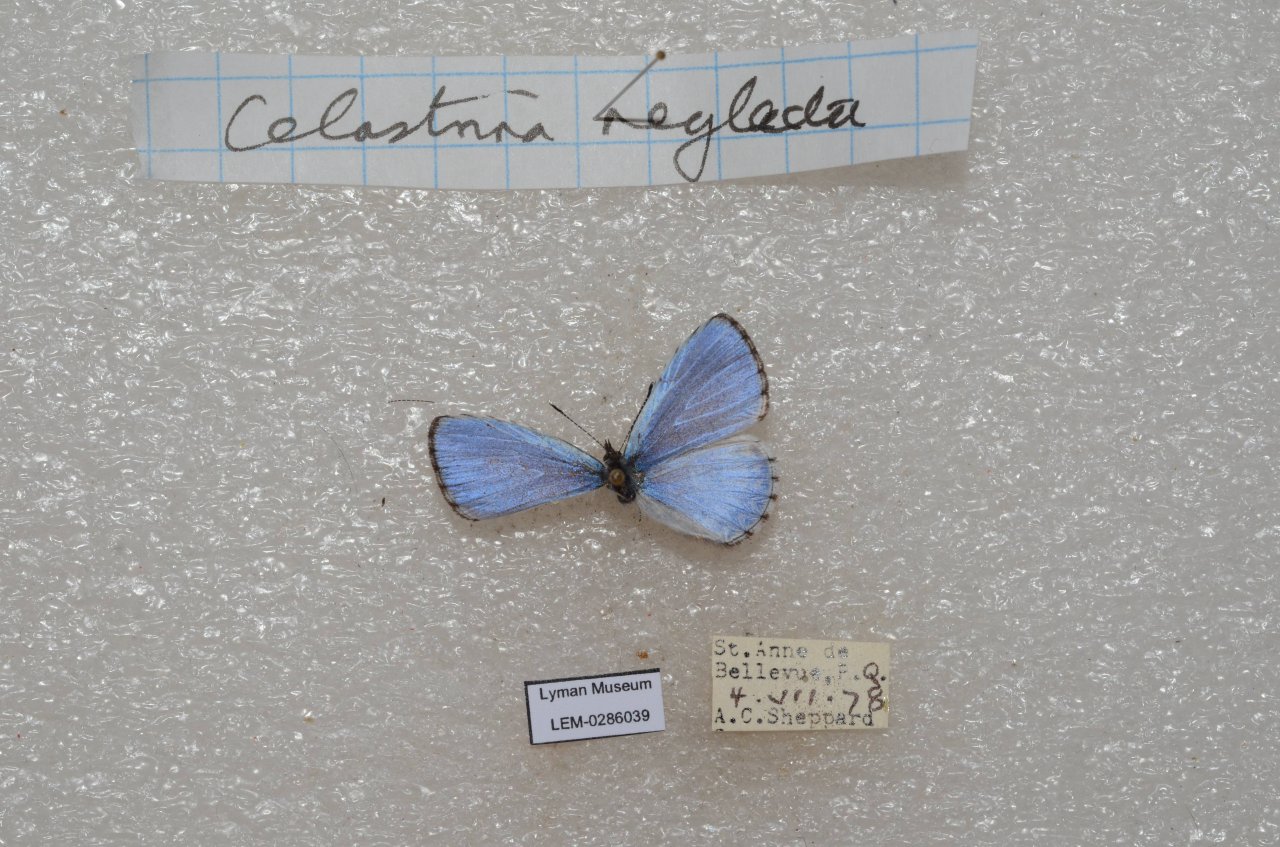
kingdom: Animalia
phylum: Arthropoda
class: Insecta
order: Lepidoptera
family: Lycaenidae
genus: Celastrina
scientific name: Celastrina lucia
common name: Northern Spring Azure
